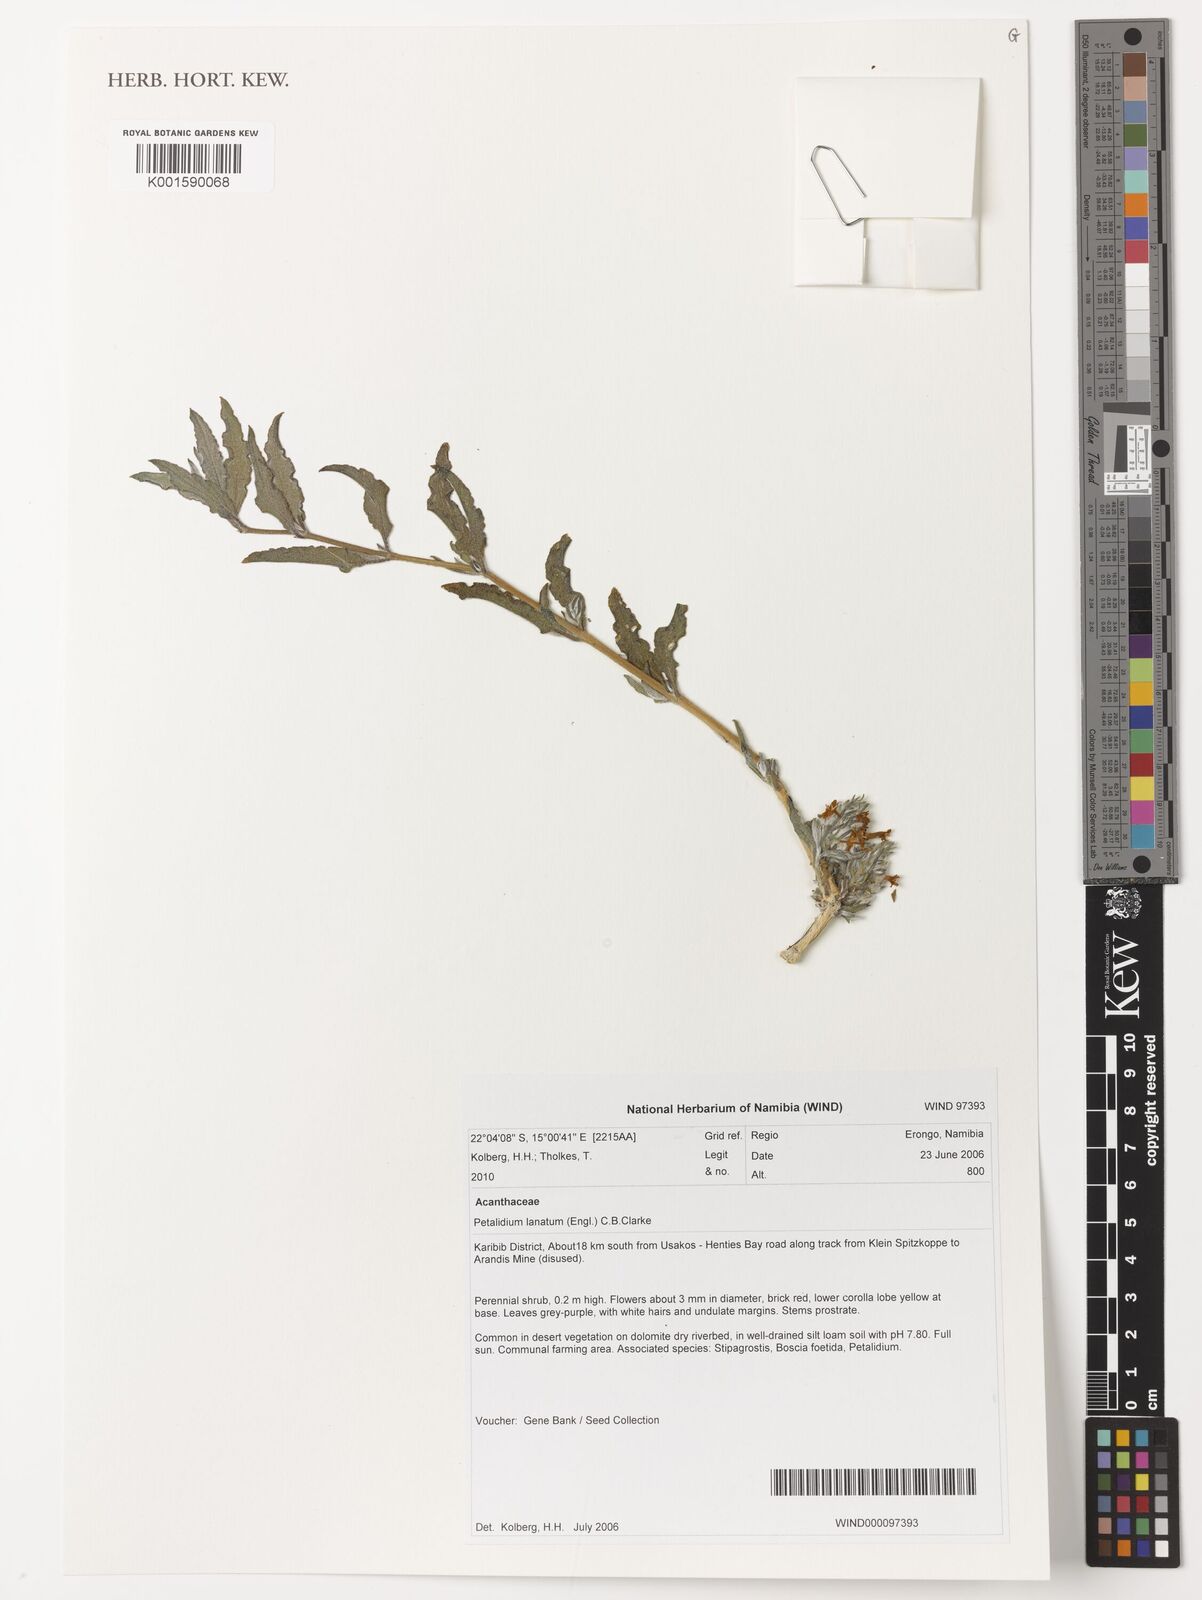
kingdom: Plantae
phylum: Tracheophyta
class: Magnoliopsida
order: Lamiales
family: Acanthaceae
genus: Petalidium
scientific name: Petalidium lanatum
